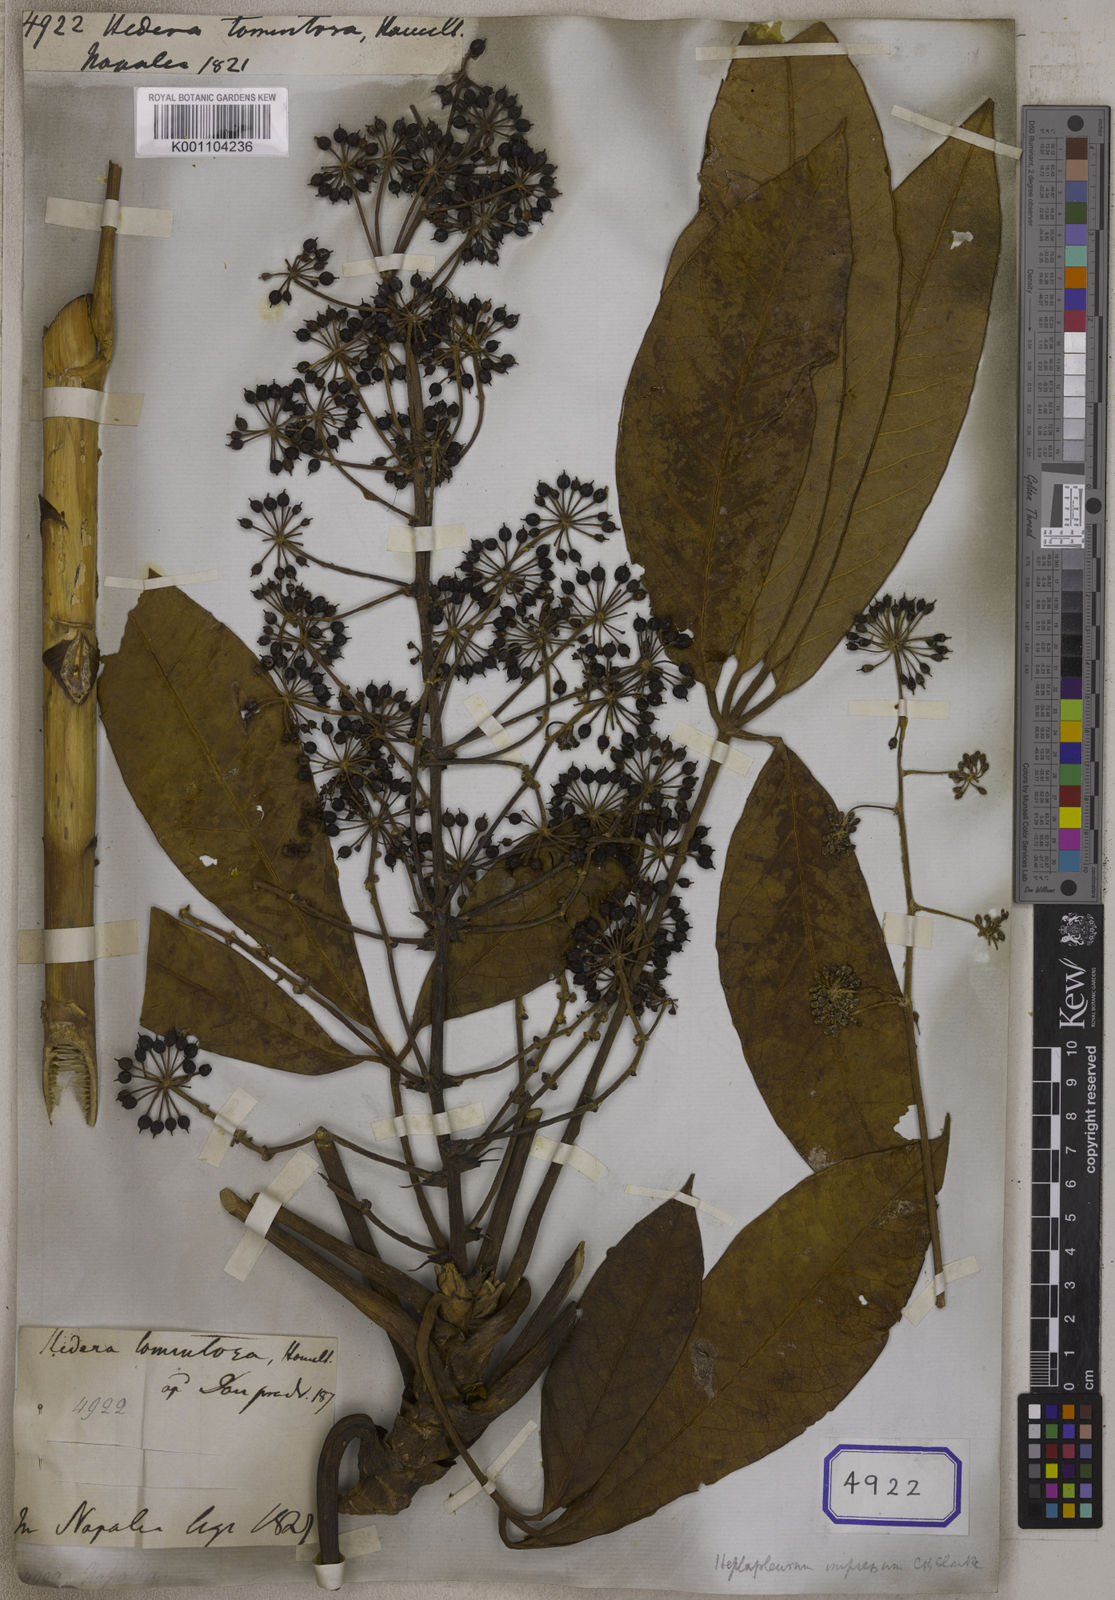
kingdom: Plantae
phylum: Tracheophyta
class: Magnoliopsida
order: Apiales
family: Araliaceae
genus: Heptapleurum
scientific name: Heptapleurum rhododendrifolium
